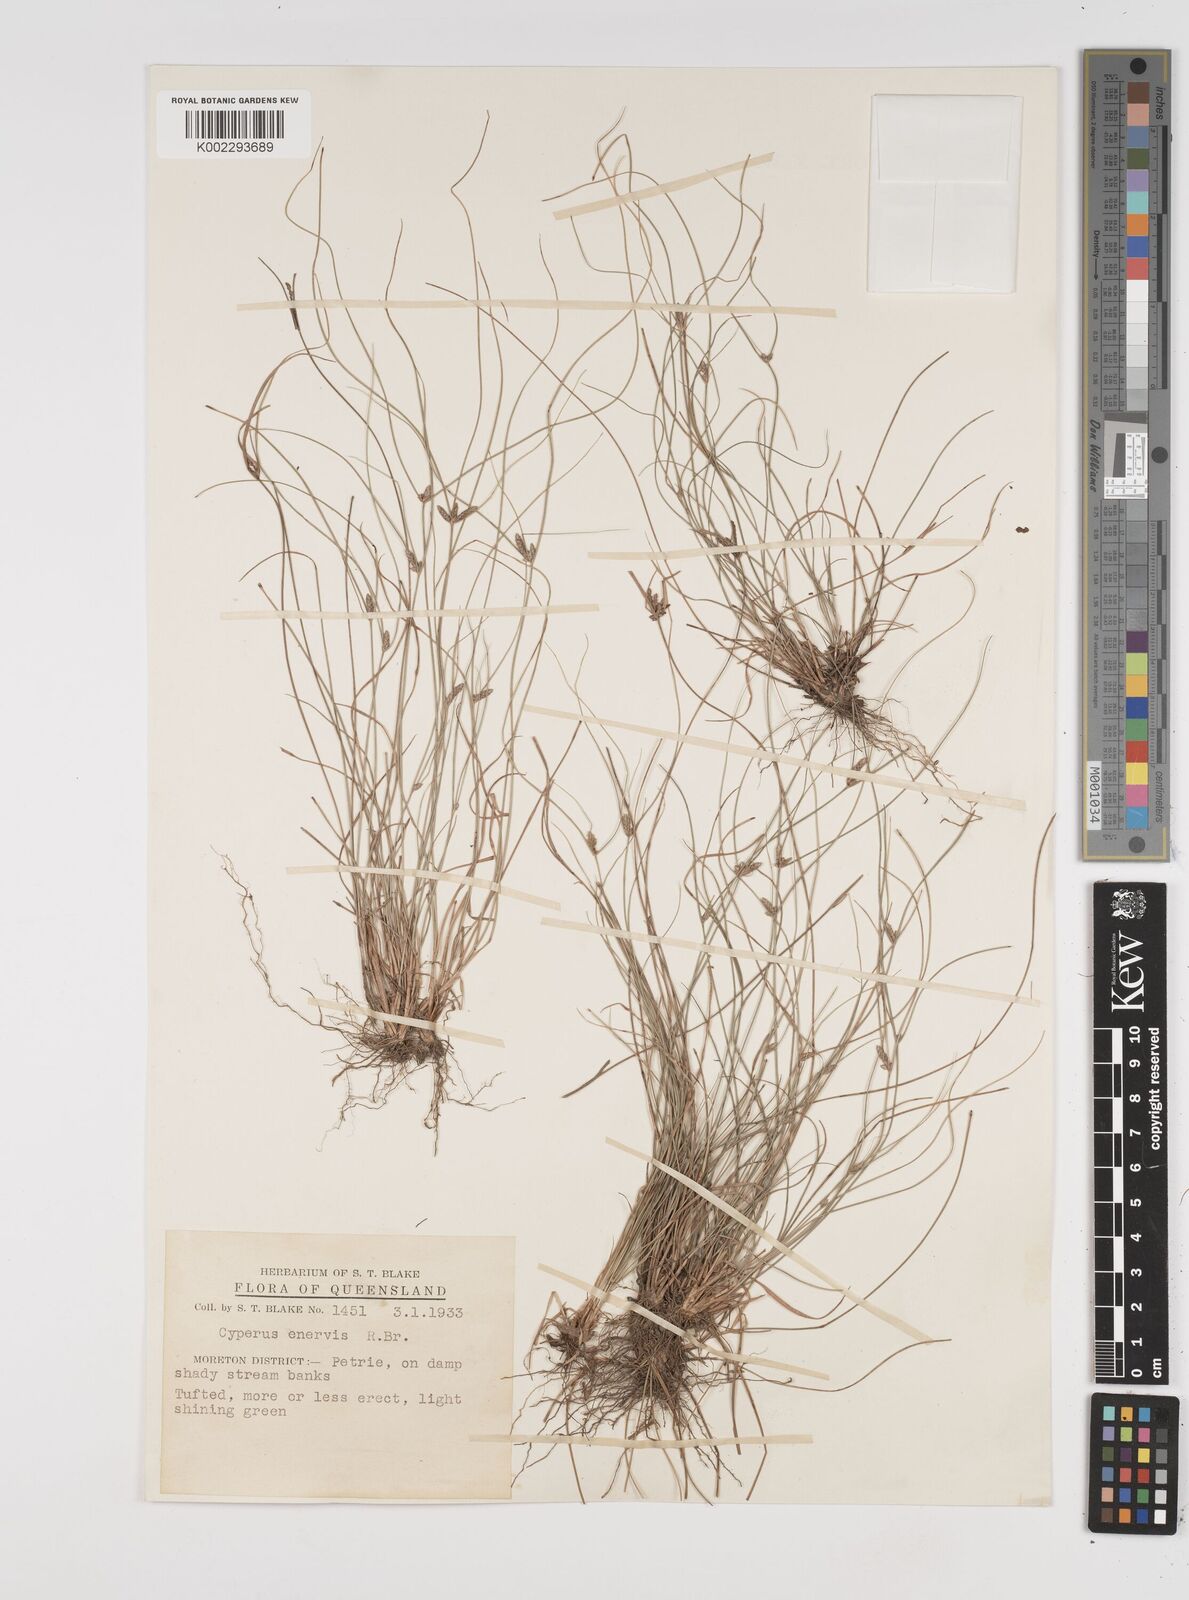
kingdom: Plantae
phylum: Tracheophyta
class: Liliopsida
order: Poales
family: Cyperaceae
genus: Cyperus
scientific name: Cyperus enervis
